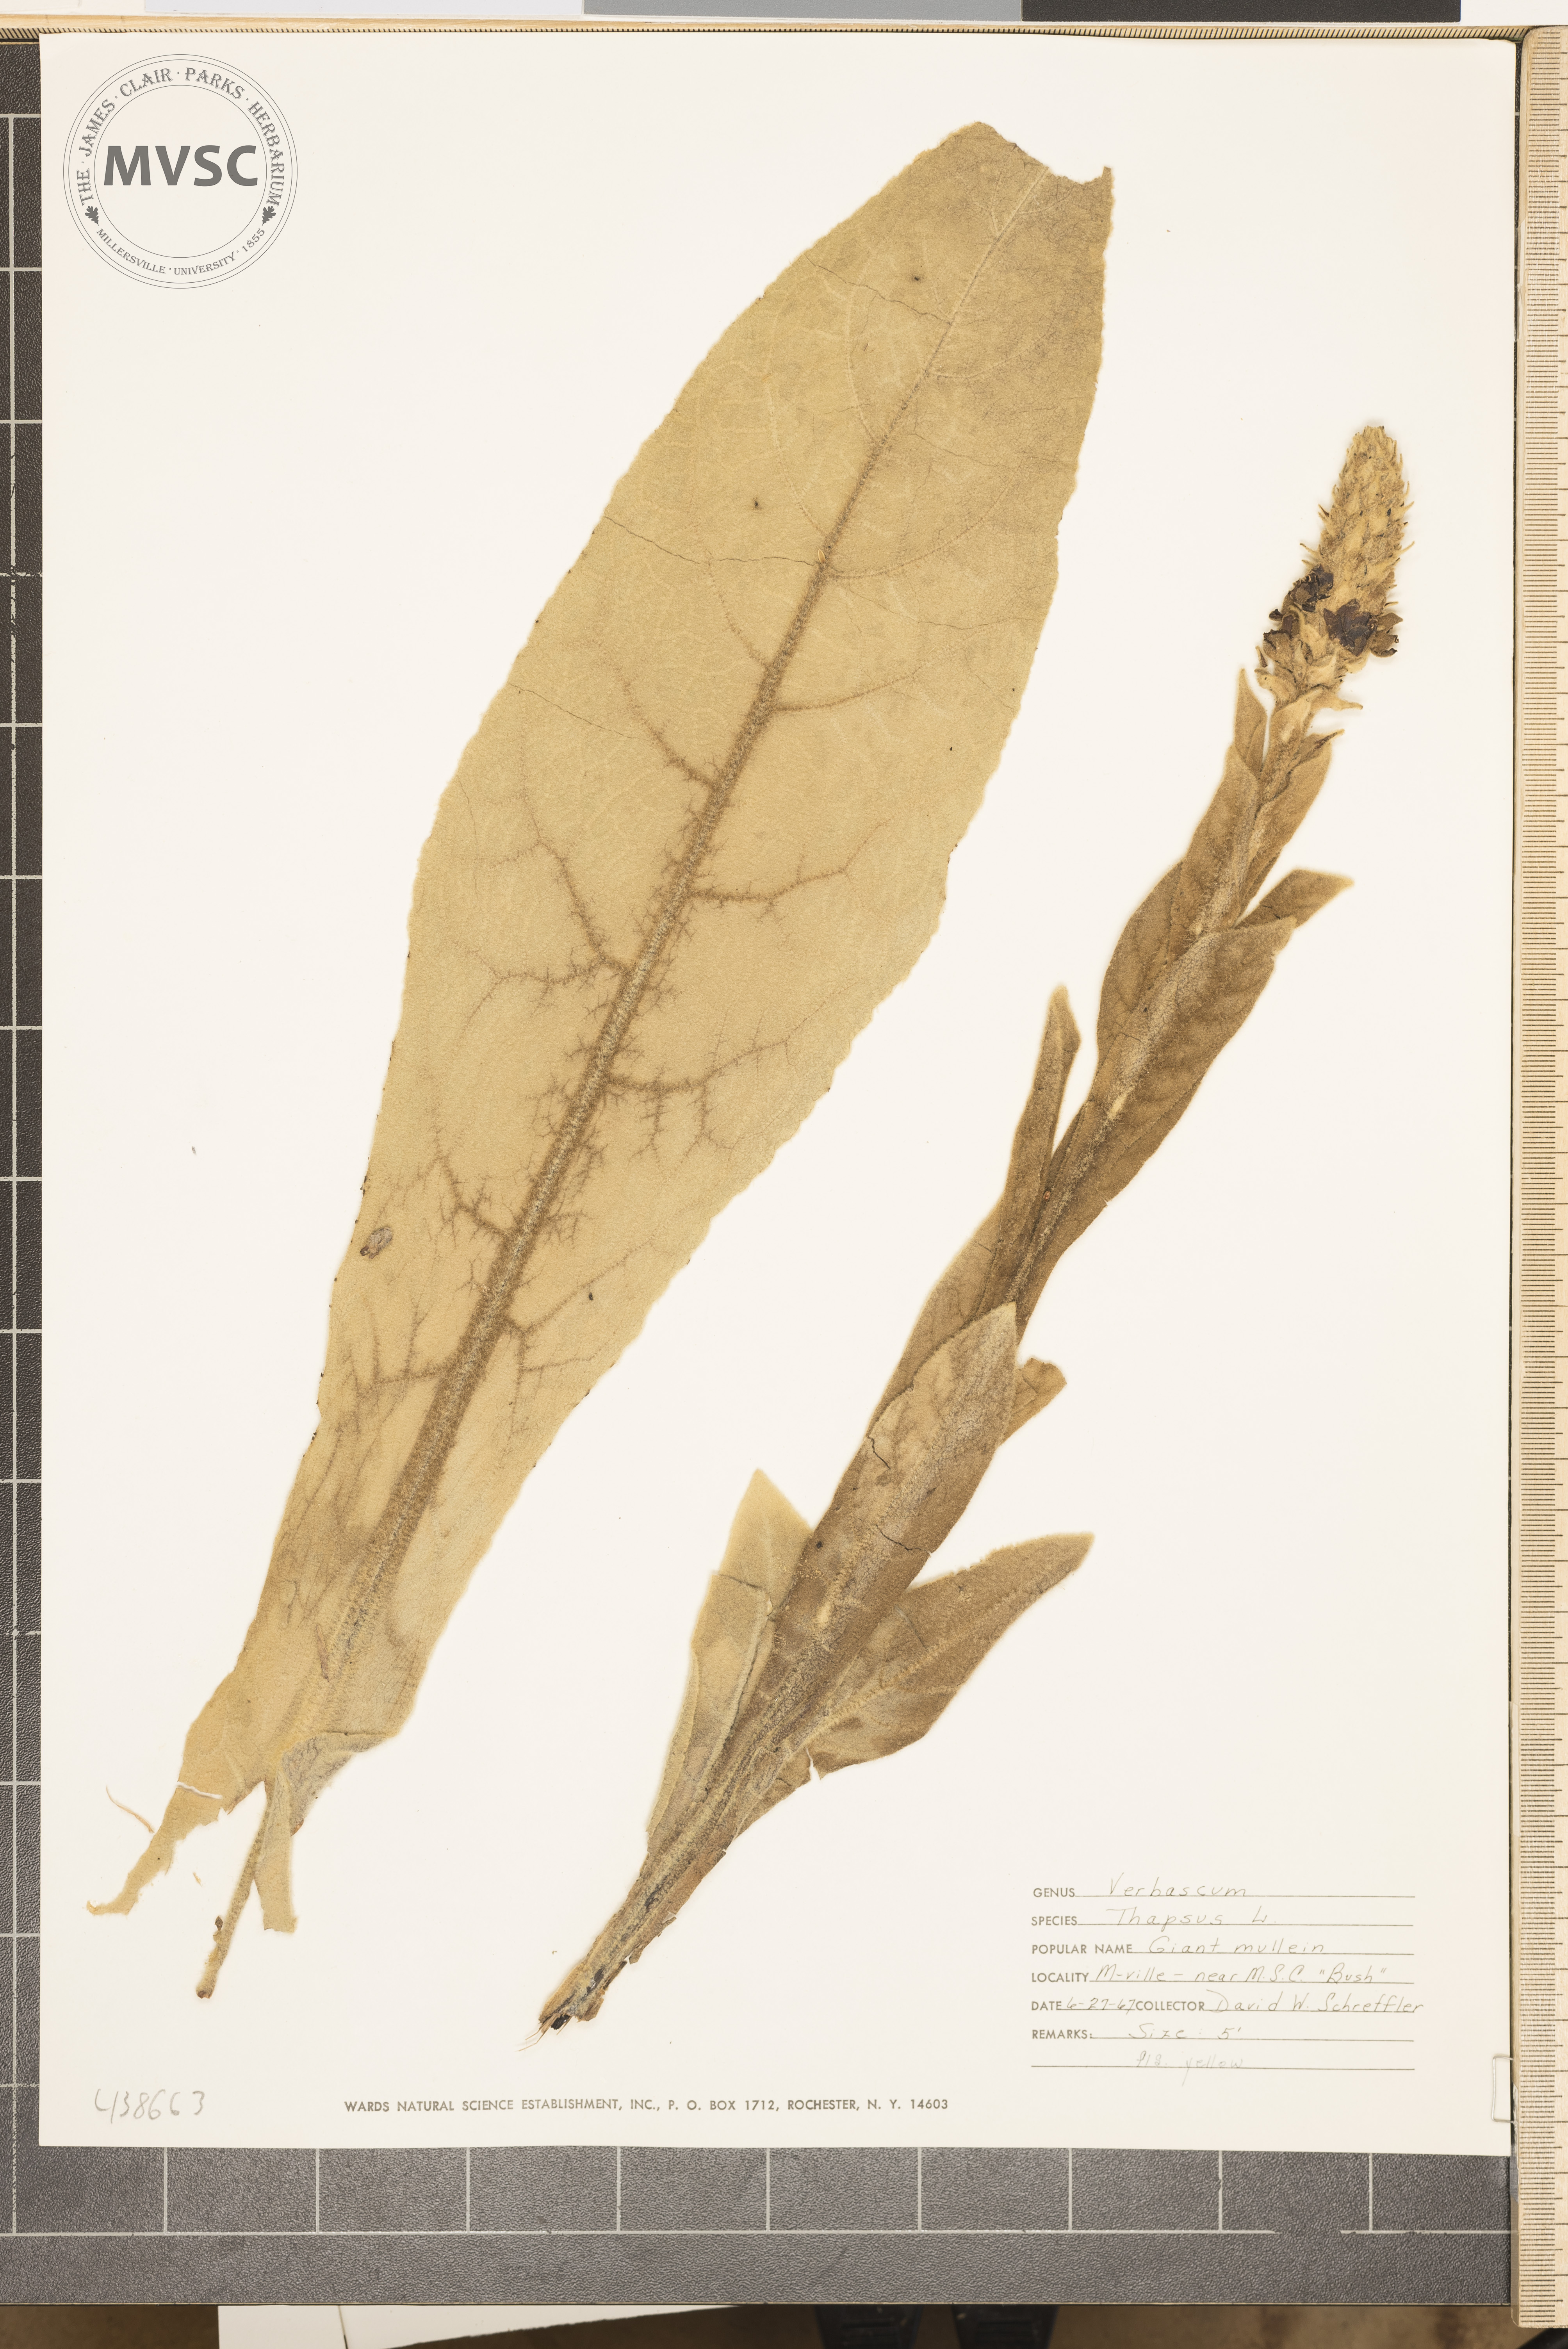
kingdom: Plantae
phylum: Tracheophyta
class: Magnoliopsida
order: Lamiales
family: Scrophulariaceae
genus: Verbascum
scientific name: Verbascum thapsus
